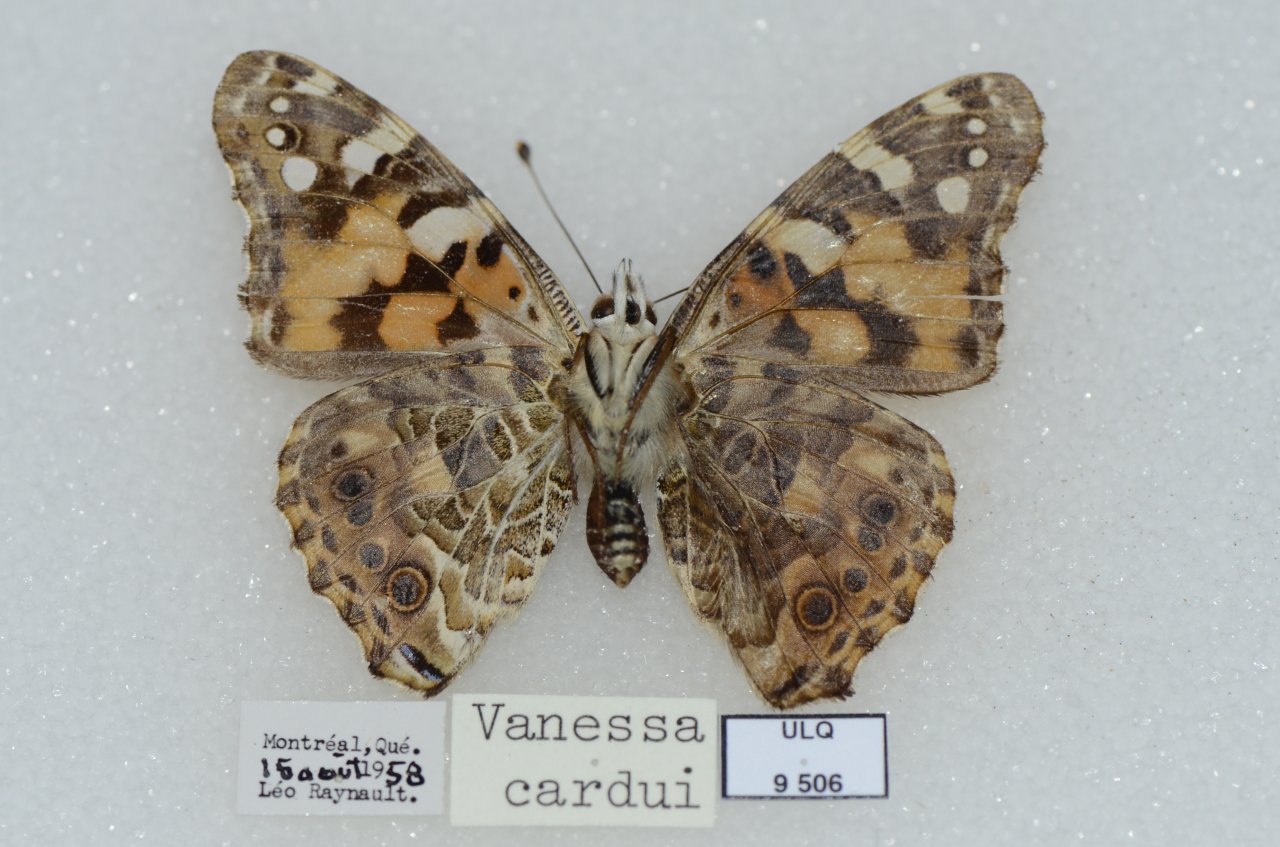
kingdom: Animalia
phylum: Arthropoda
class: Insecta
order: Lepidoptera
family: Nymphalidae
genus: Vanessa
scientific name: Vanessa cardui
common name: Painted Lady
